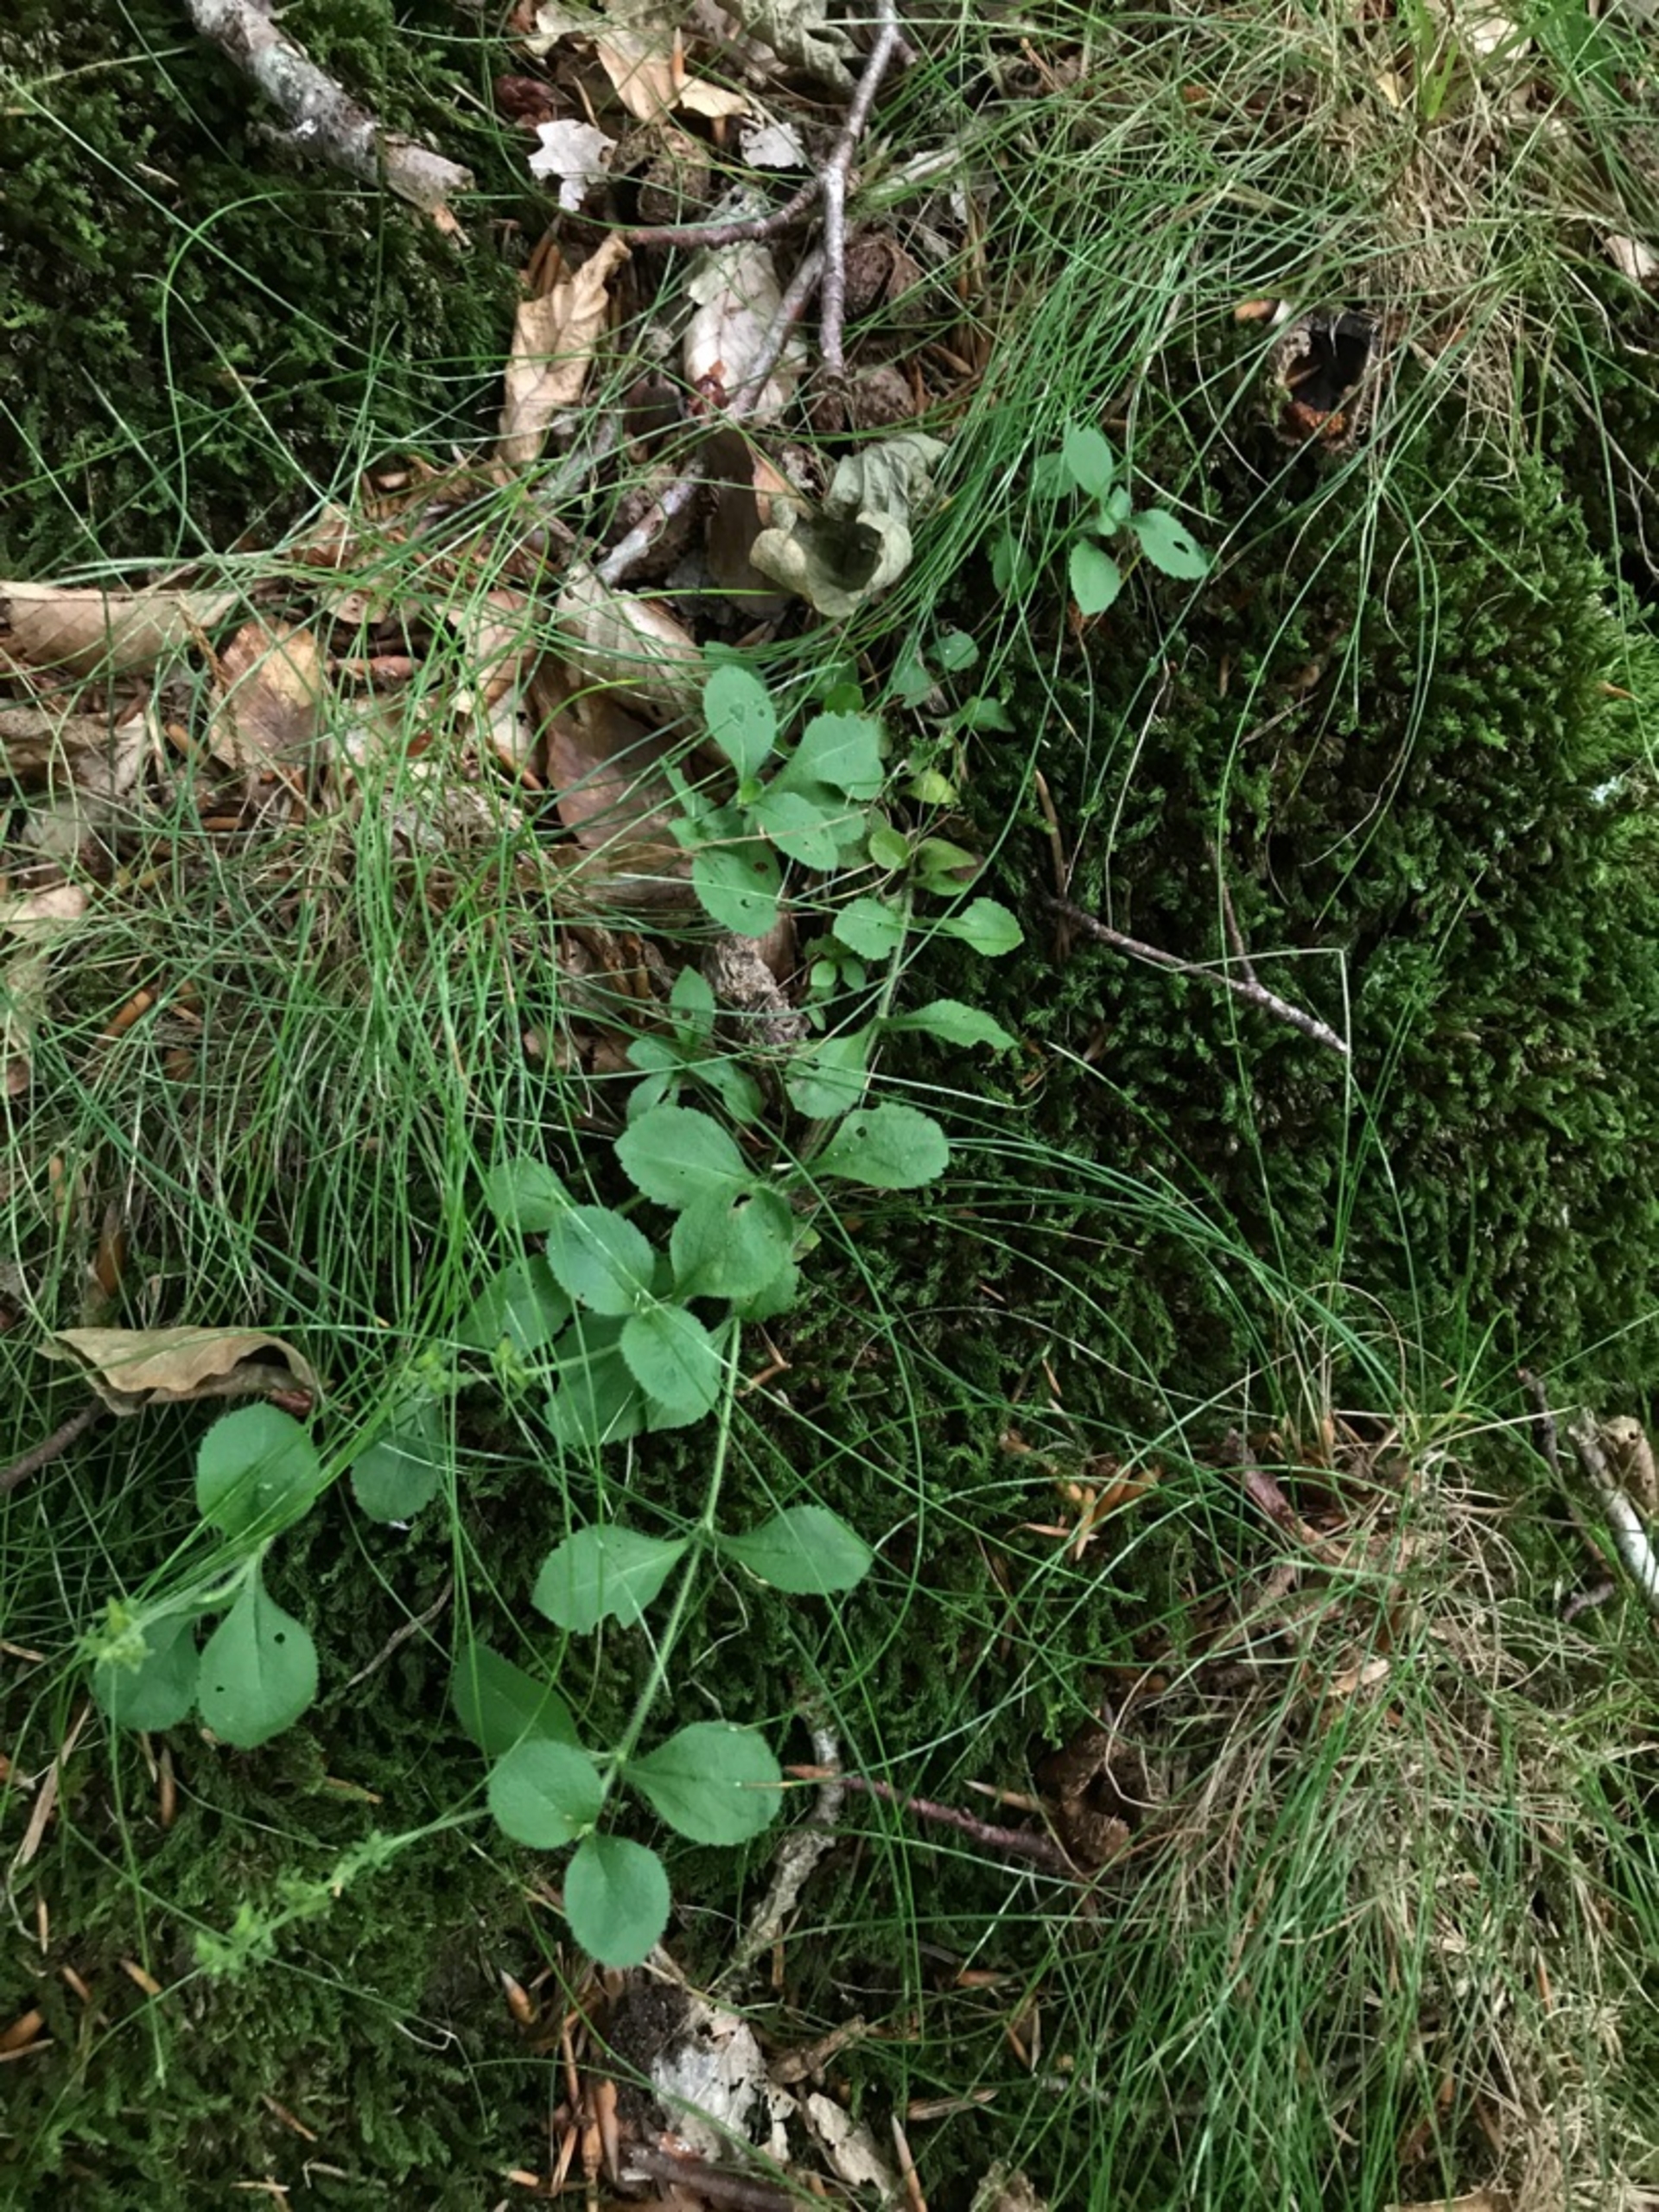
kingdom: Plantae
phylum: Tracheophyta
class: Magnoliopsida
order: Lamiales
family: Plantaginaceae
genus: Veronica
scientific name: Veronica officinalis
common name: Læge-ærenpris
